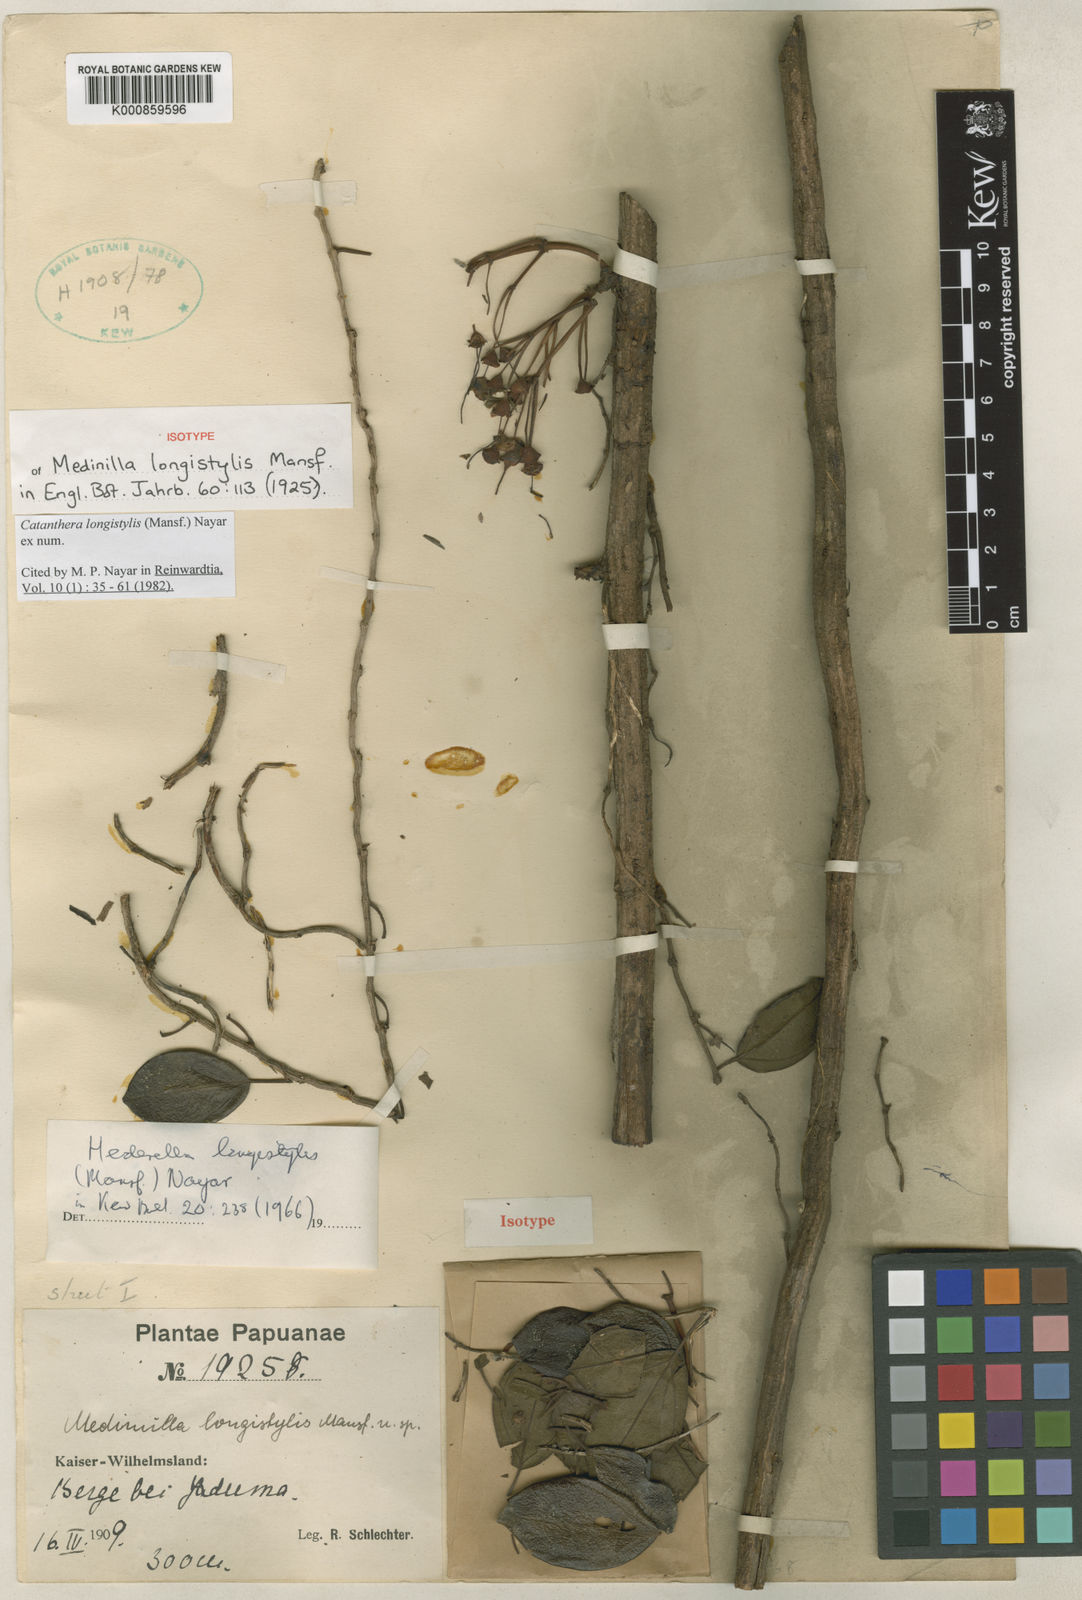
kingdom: Plantae
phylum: Tracheophyta
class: Magnoliopsida
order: Myrtales
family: Melastomataceae
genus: Catanthera
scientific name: Catanthera longistylis
